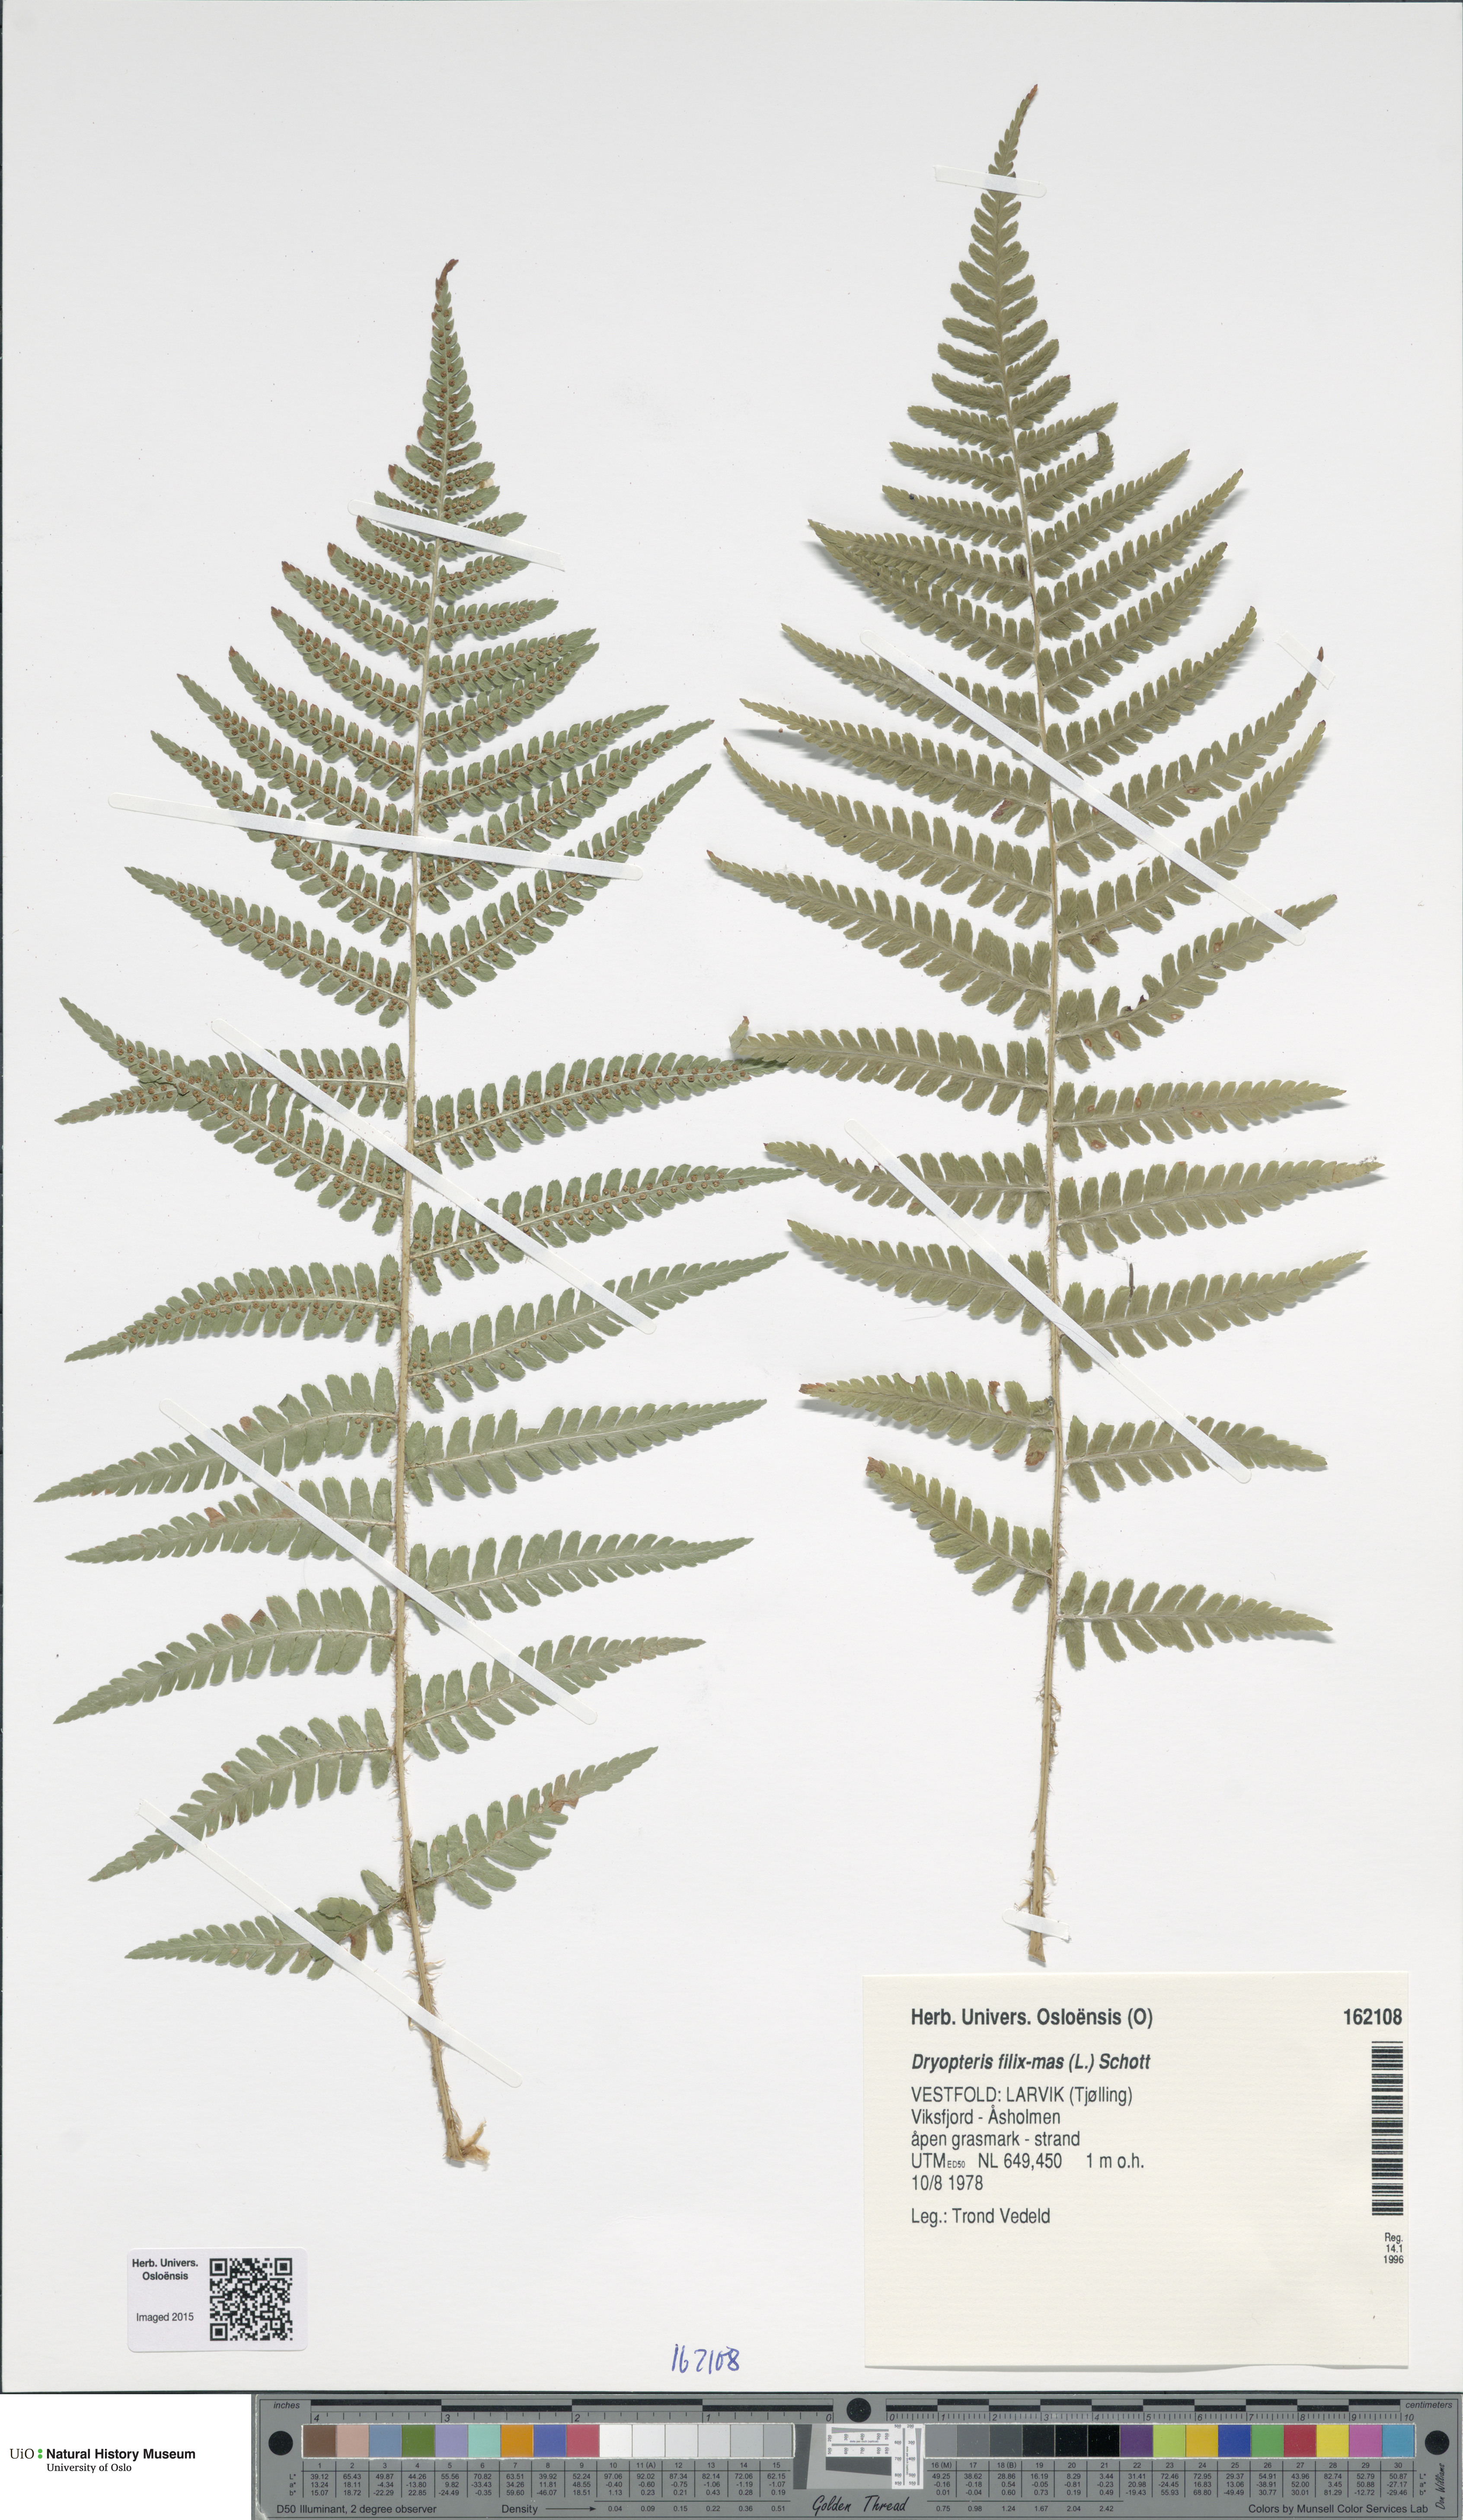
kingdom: Plantae
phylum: Tracheophyta
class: Polypodiopsida
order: Polypodiales
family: Dryopteridaceae
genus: Dryopteris
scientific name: Dryopteris filix-mas
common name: Male fern
